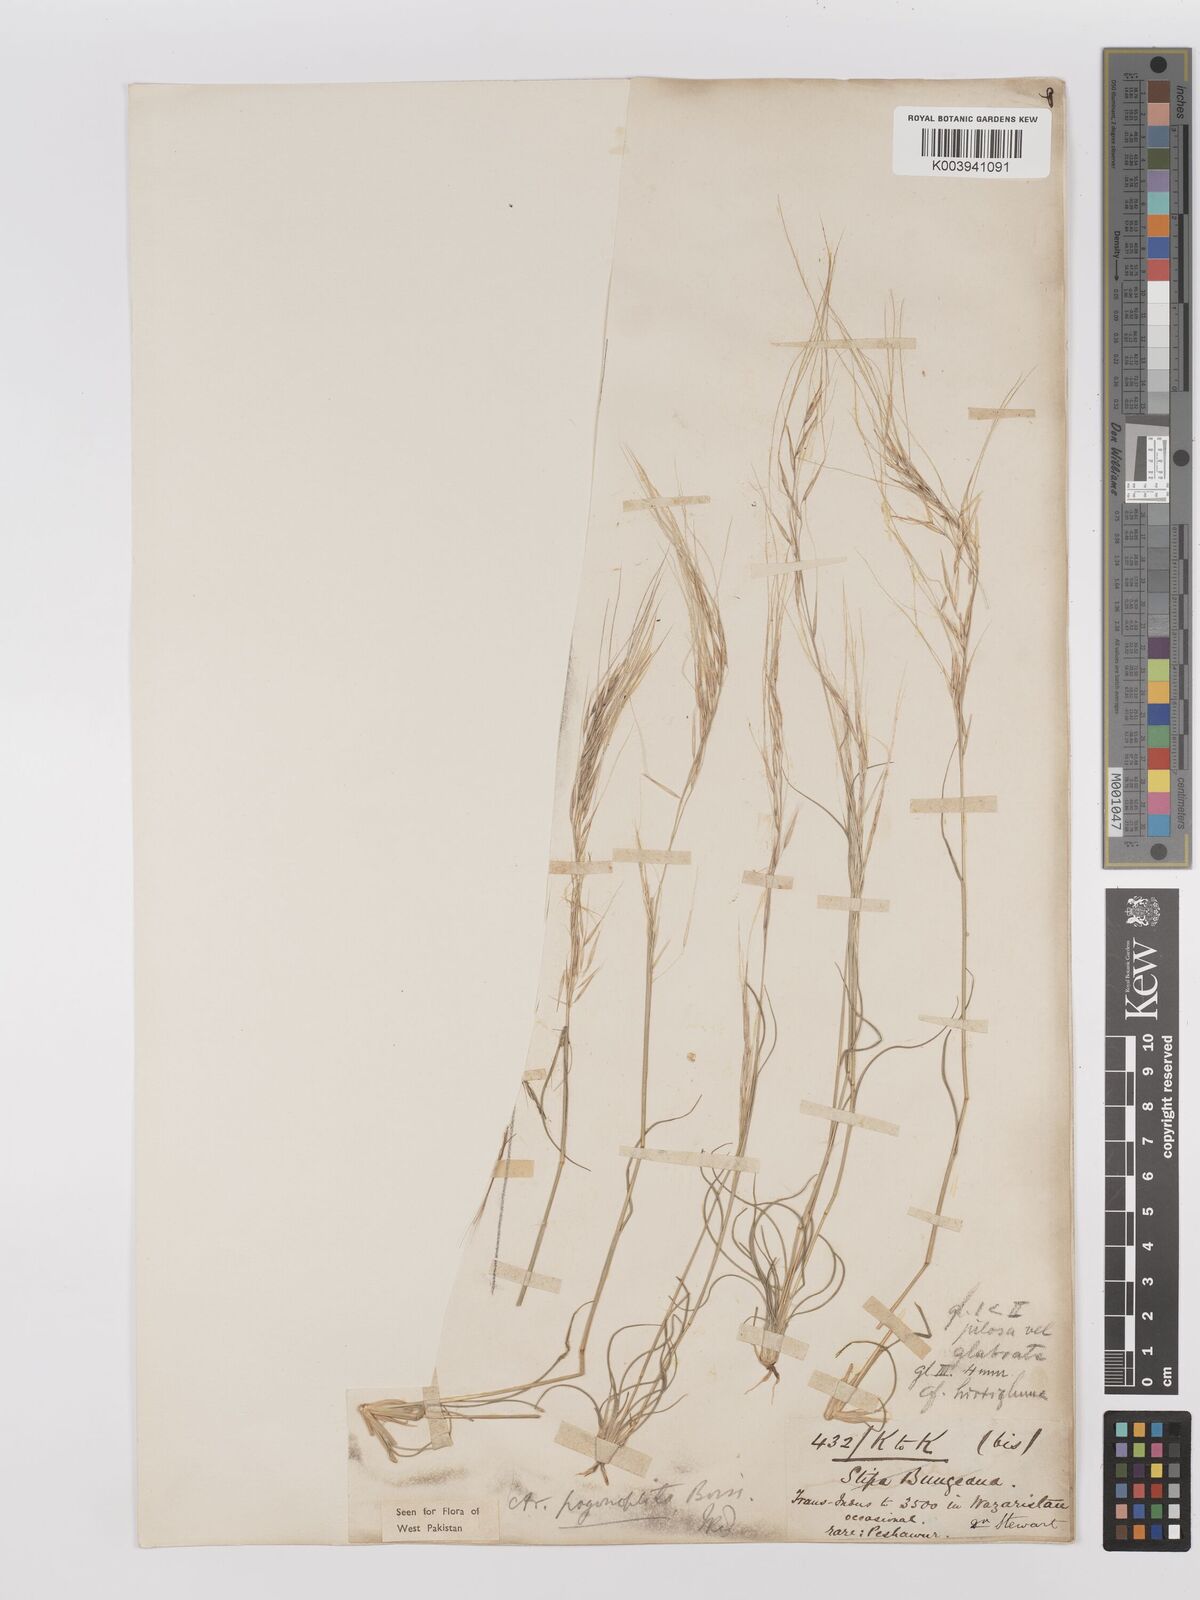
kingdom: Plantae
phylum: Tracheophyta
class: Liliopsida
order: Poales
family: Poaceae
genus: Stipagrostis
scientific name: Stipagrostis uniplumis
